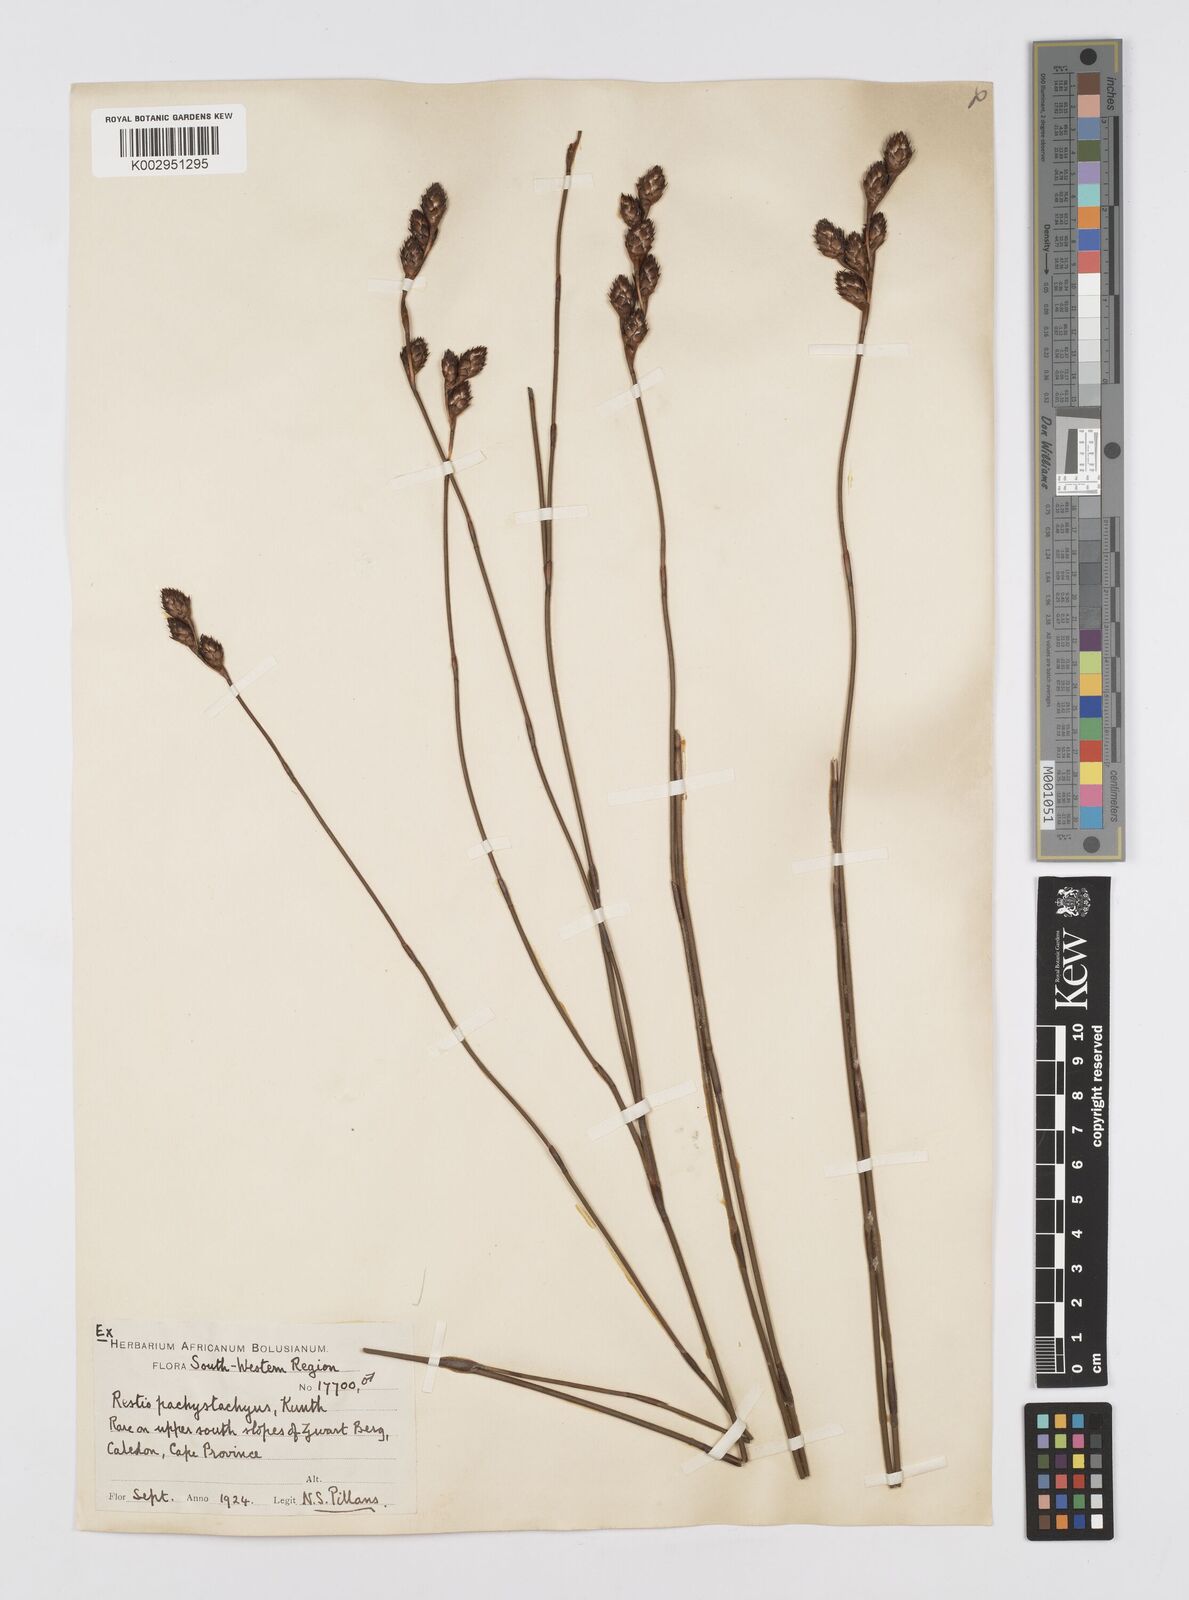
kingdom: Plantae
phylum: Tracheophyta
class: Liliopsida
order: Poales
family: Restionaceae
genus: Restio
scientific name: Restio pachystachyus
